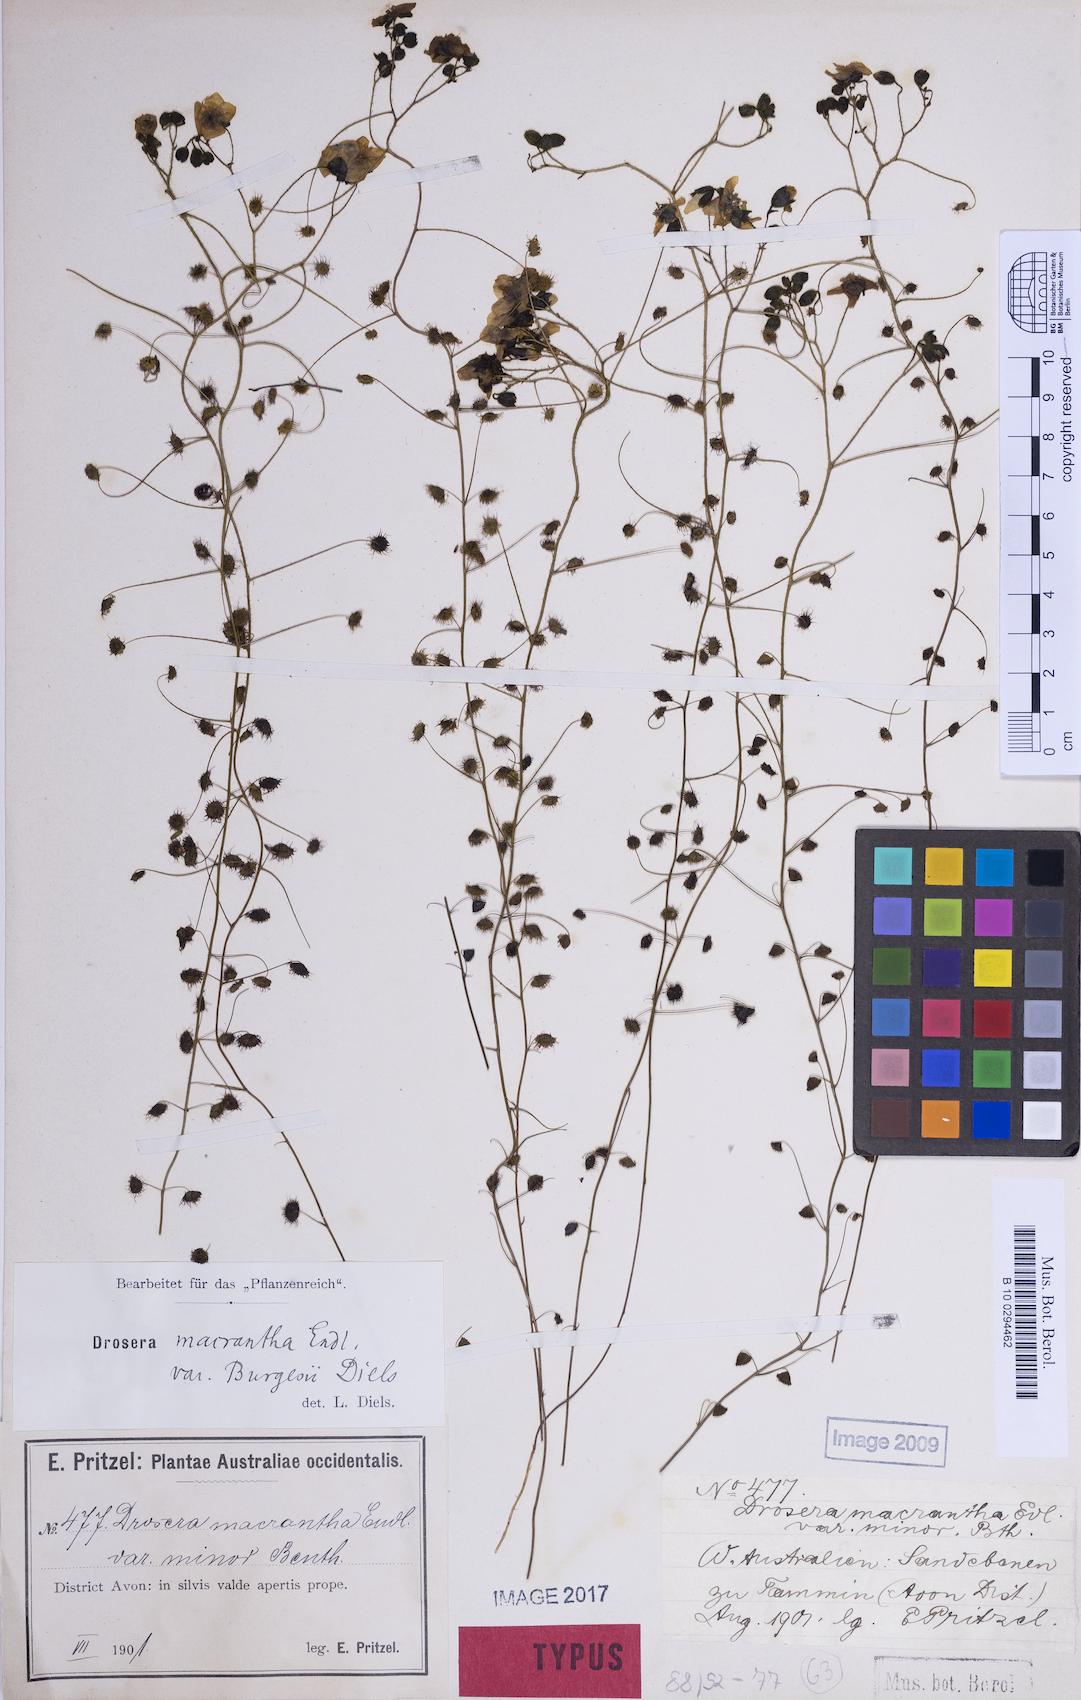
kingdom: Plantae
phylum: Tracheophyta
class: Magnoliopsida
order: Caryophyllales
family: Droseraceae
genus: Drosera
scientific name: Drosera macrantha
